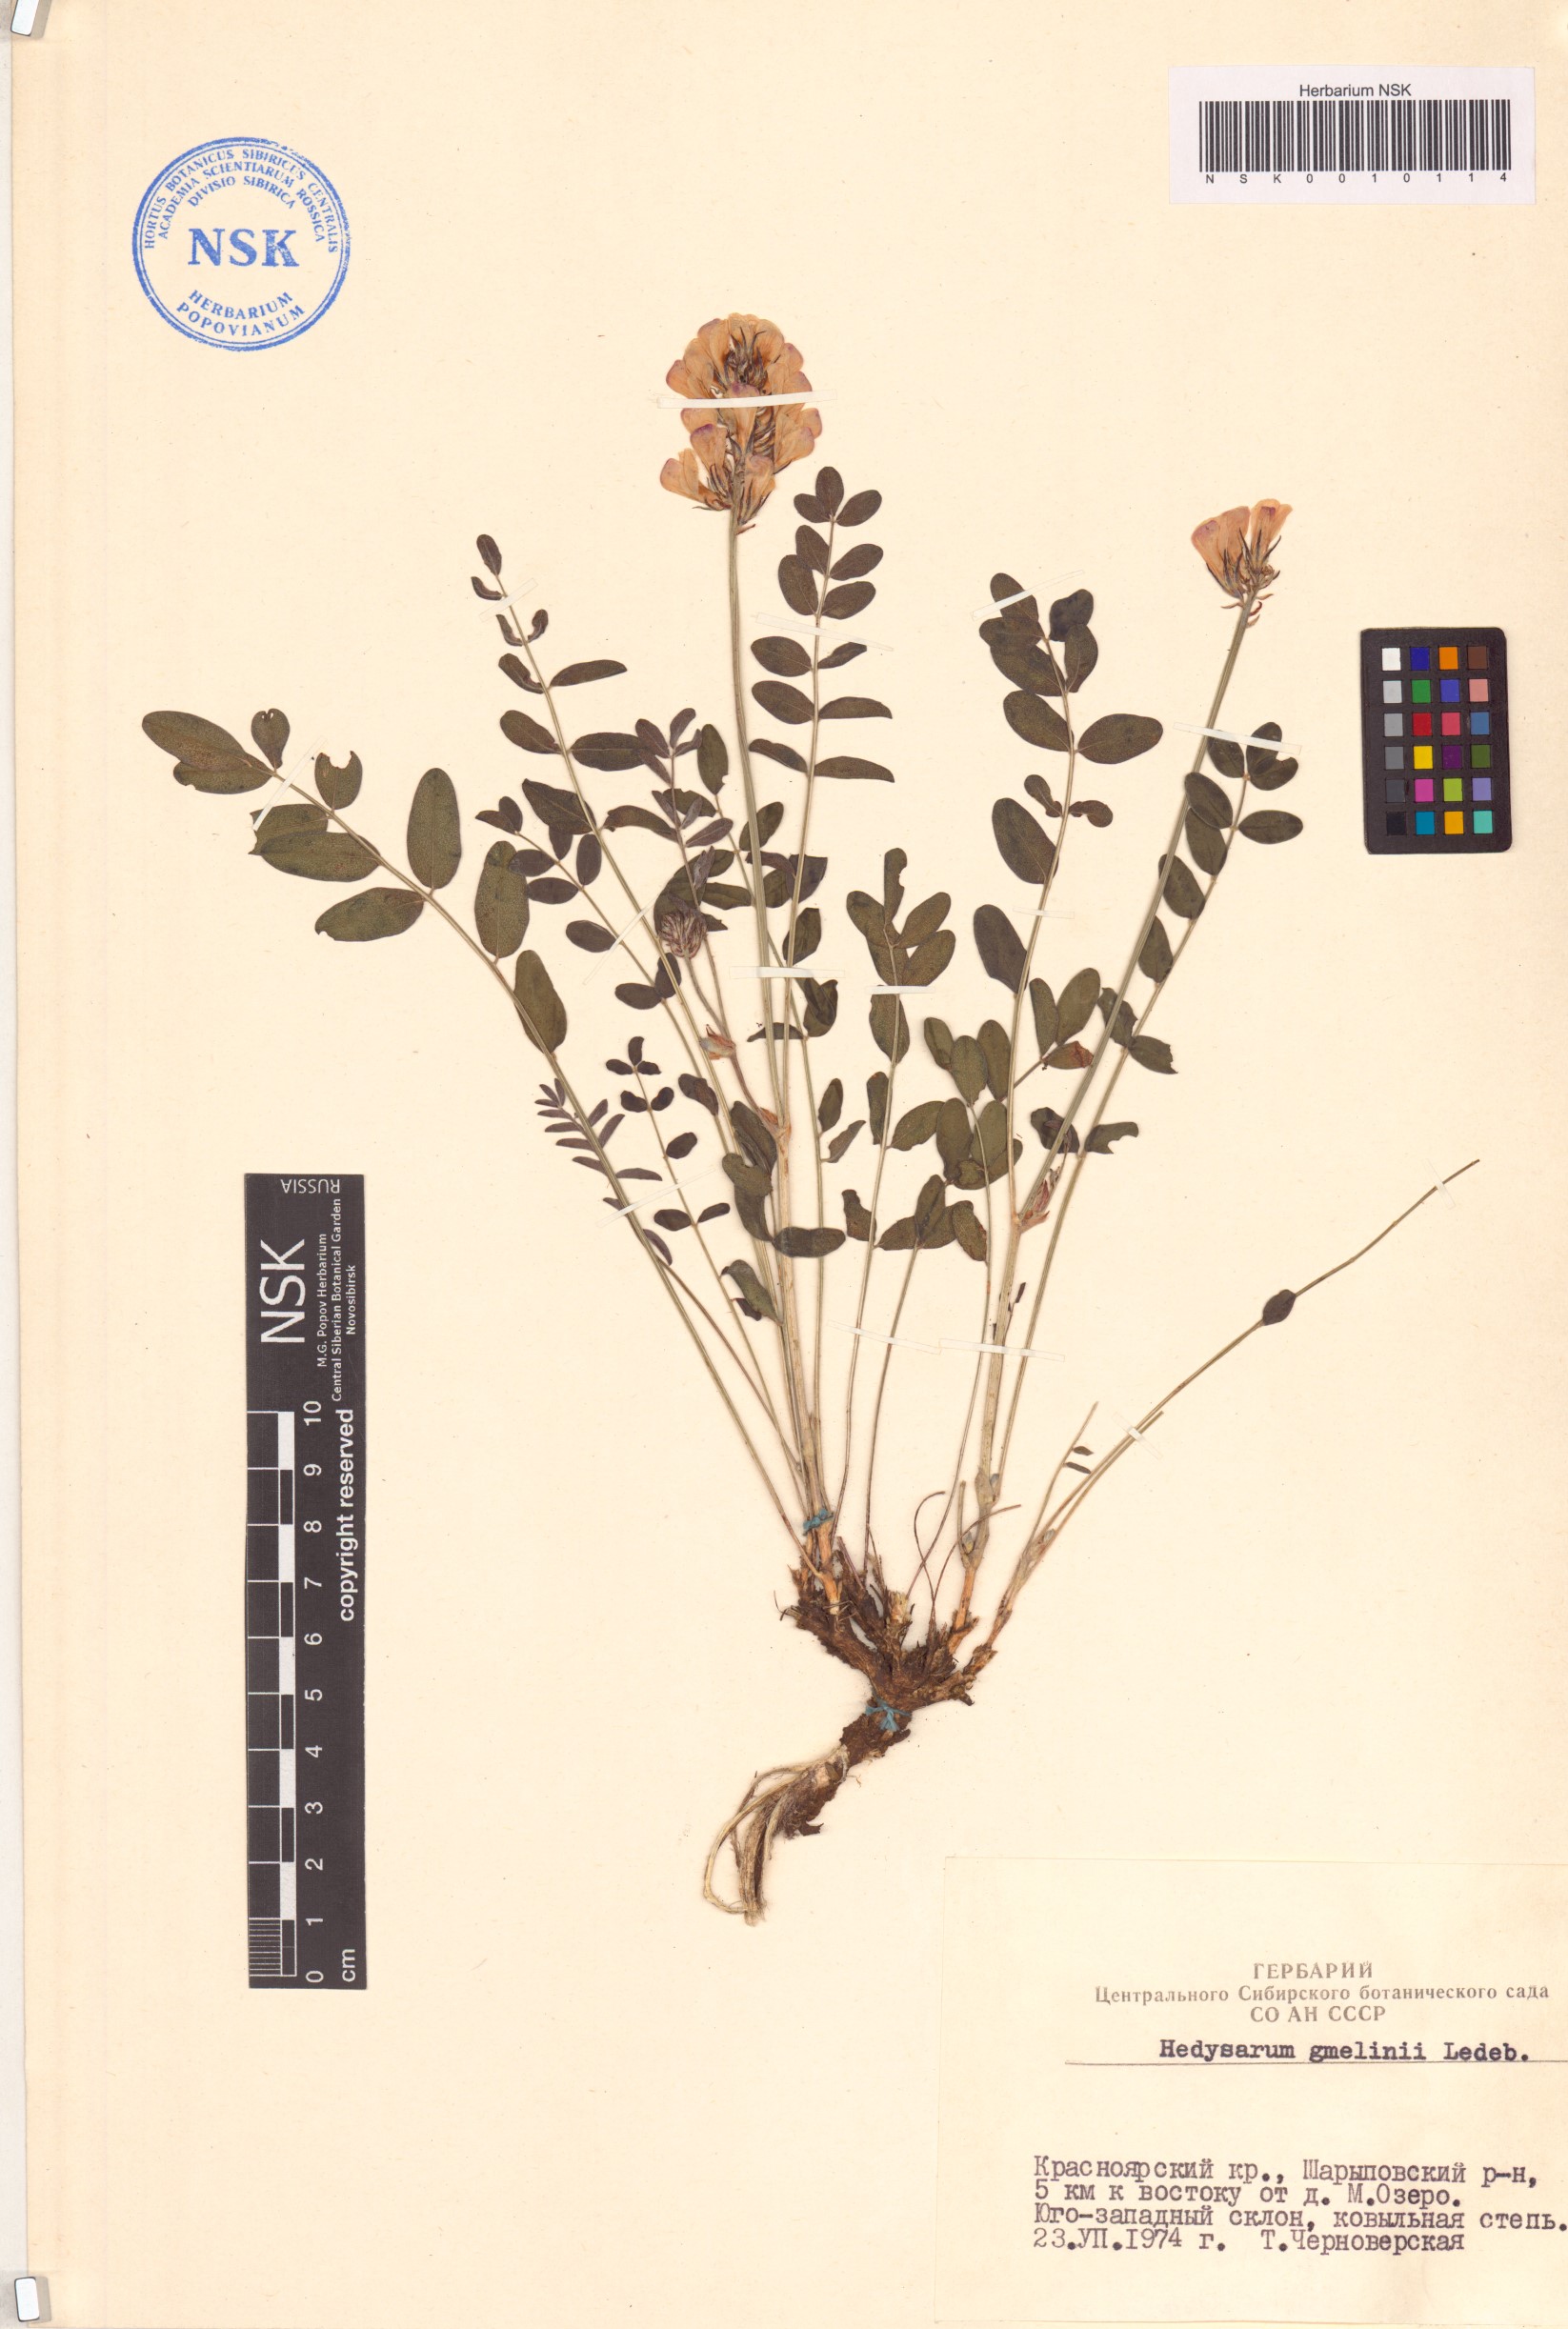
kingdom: Plantae
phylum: Tracheophyta
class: Magnoliopsida
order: Fabales
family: Fabaceae
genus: Hedysarum
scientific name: Hedysarum gmelinii
